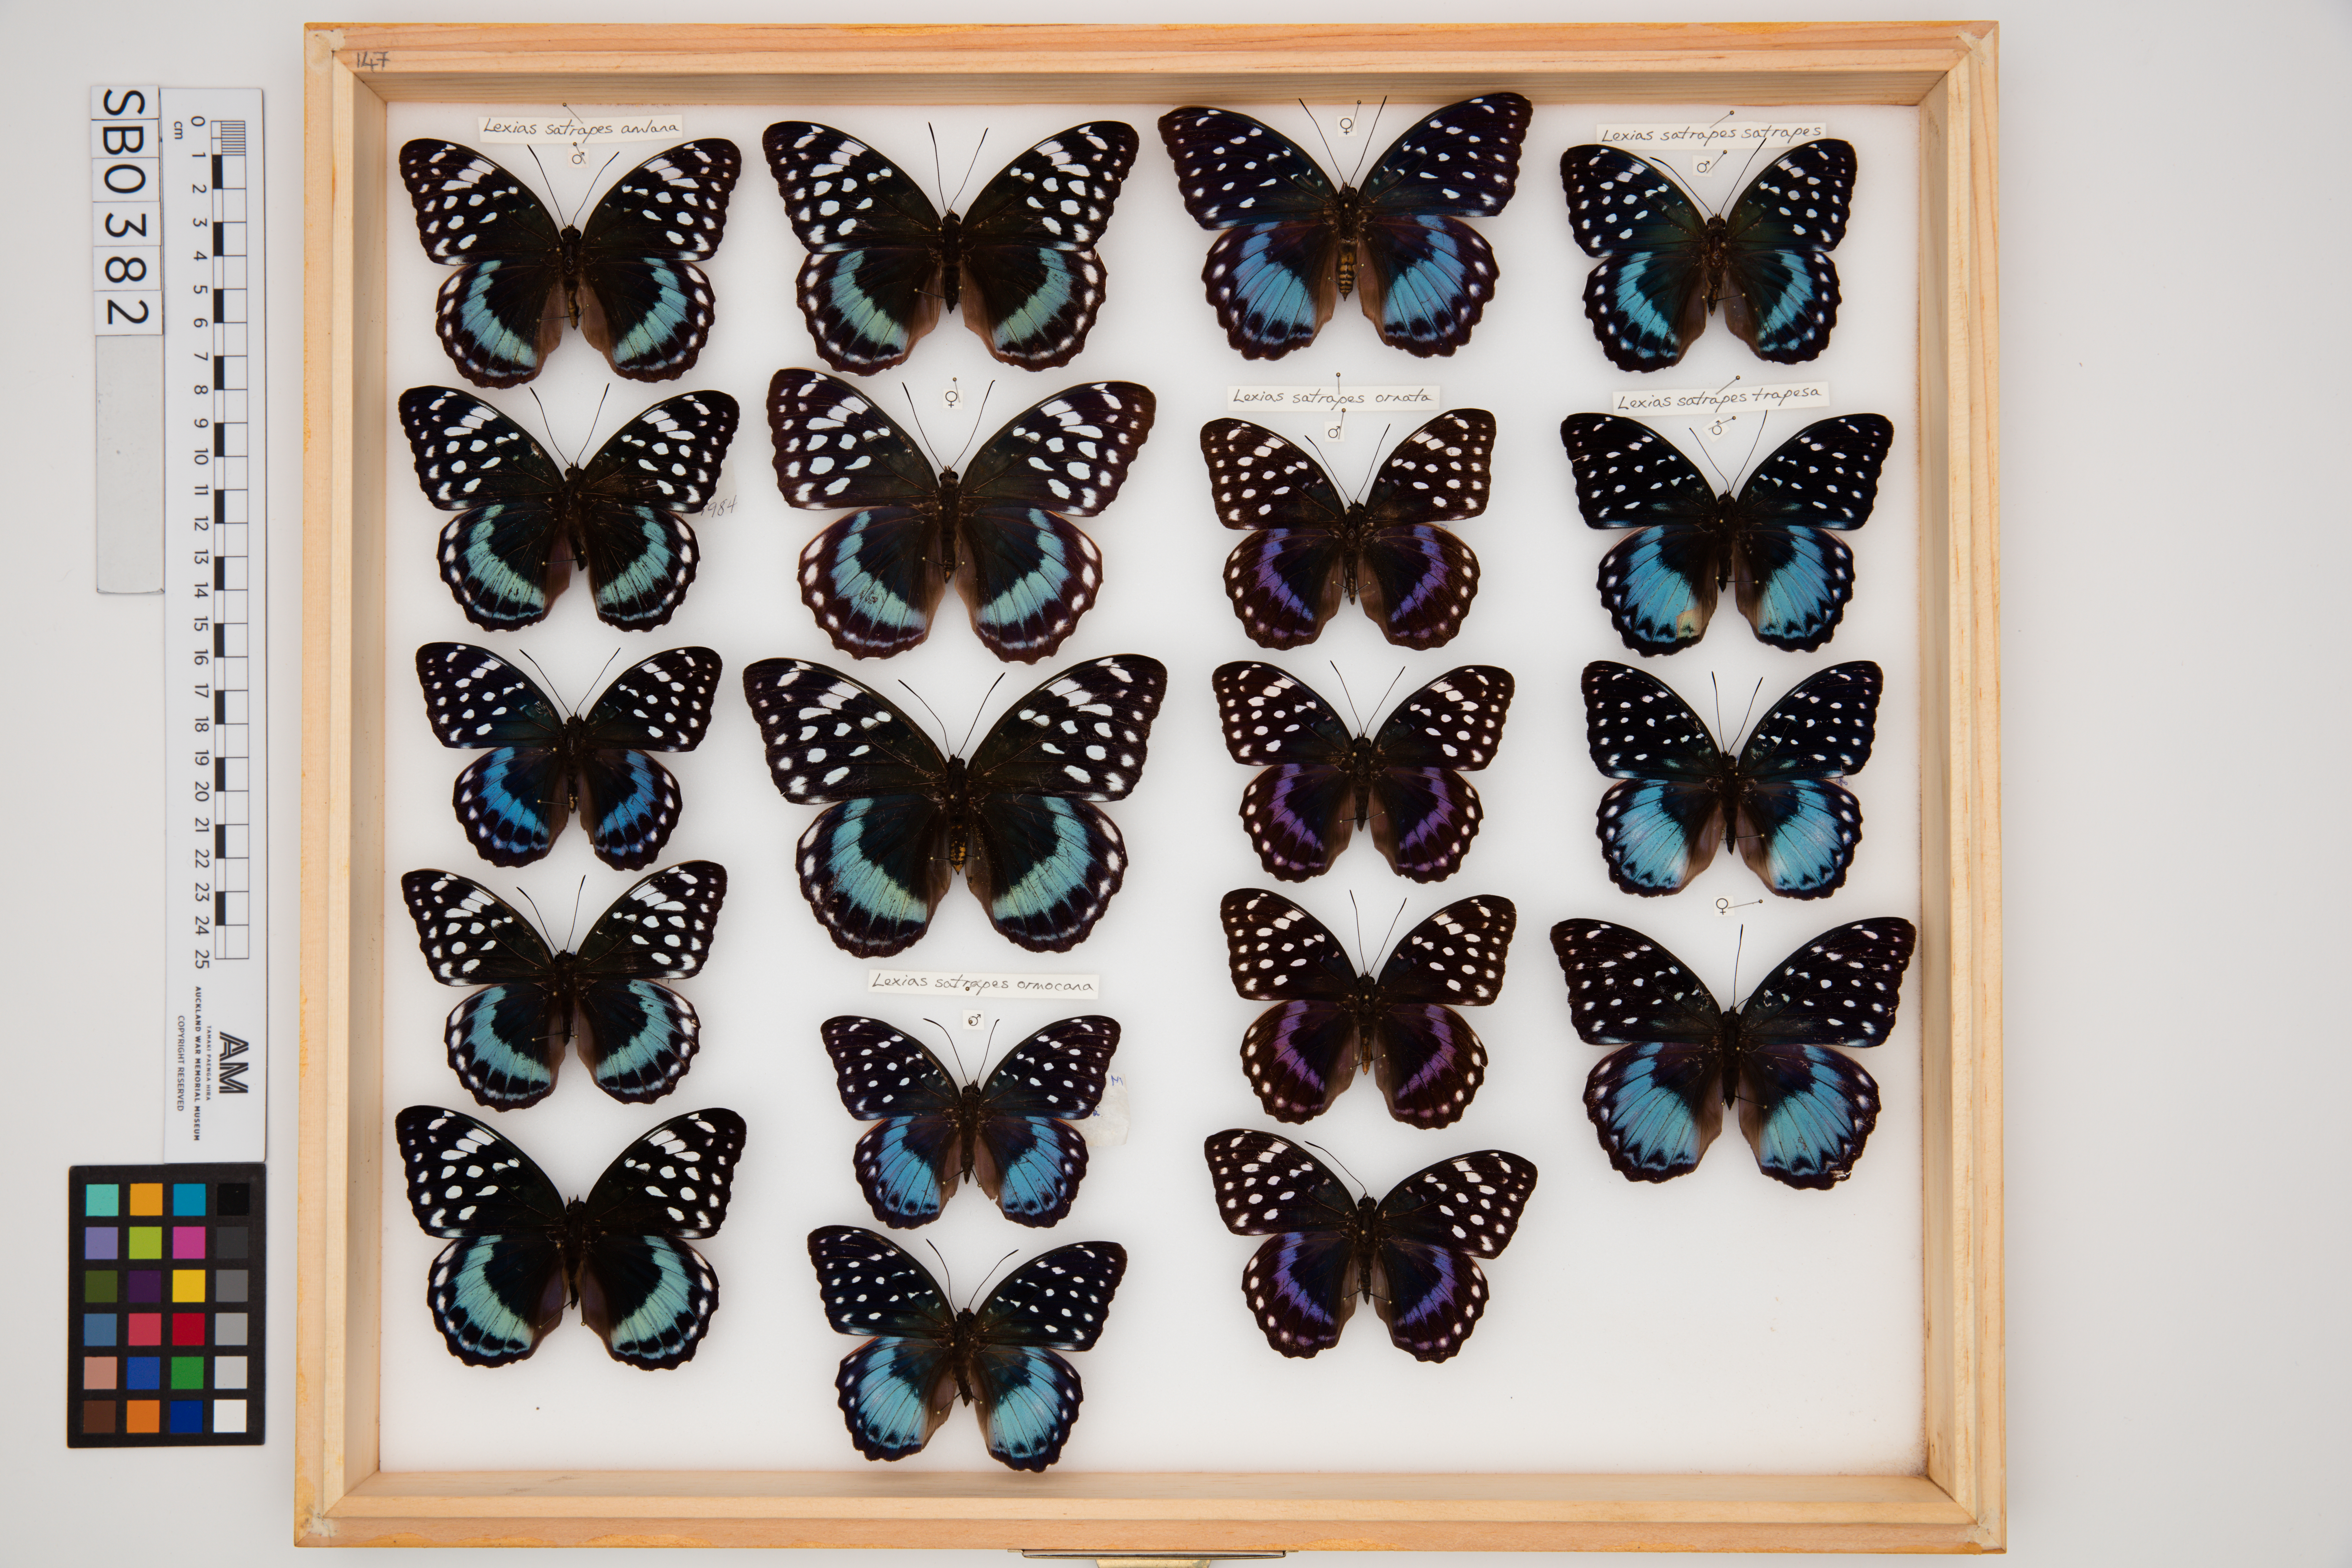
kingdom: Animalia
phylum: Arthropoda
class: Insecta
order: Lepidoptera
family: Nymphalidae
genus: Lexias
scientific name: Lexias satrapes
